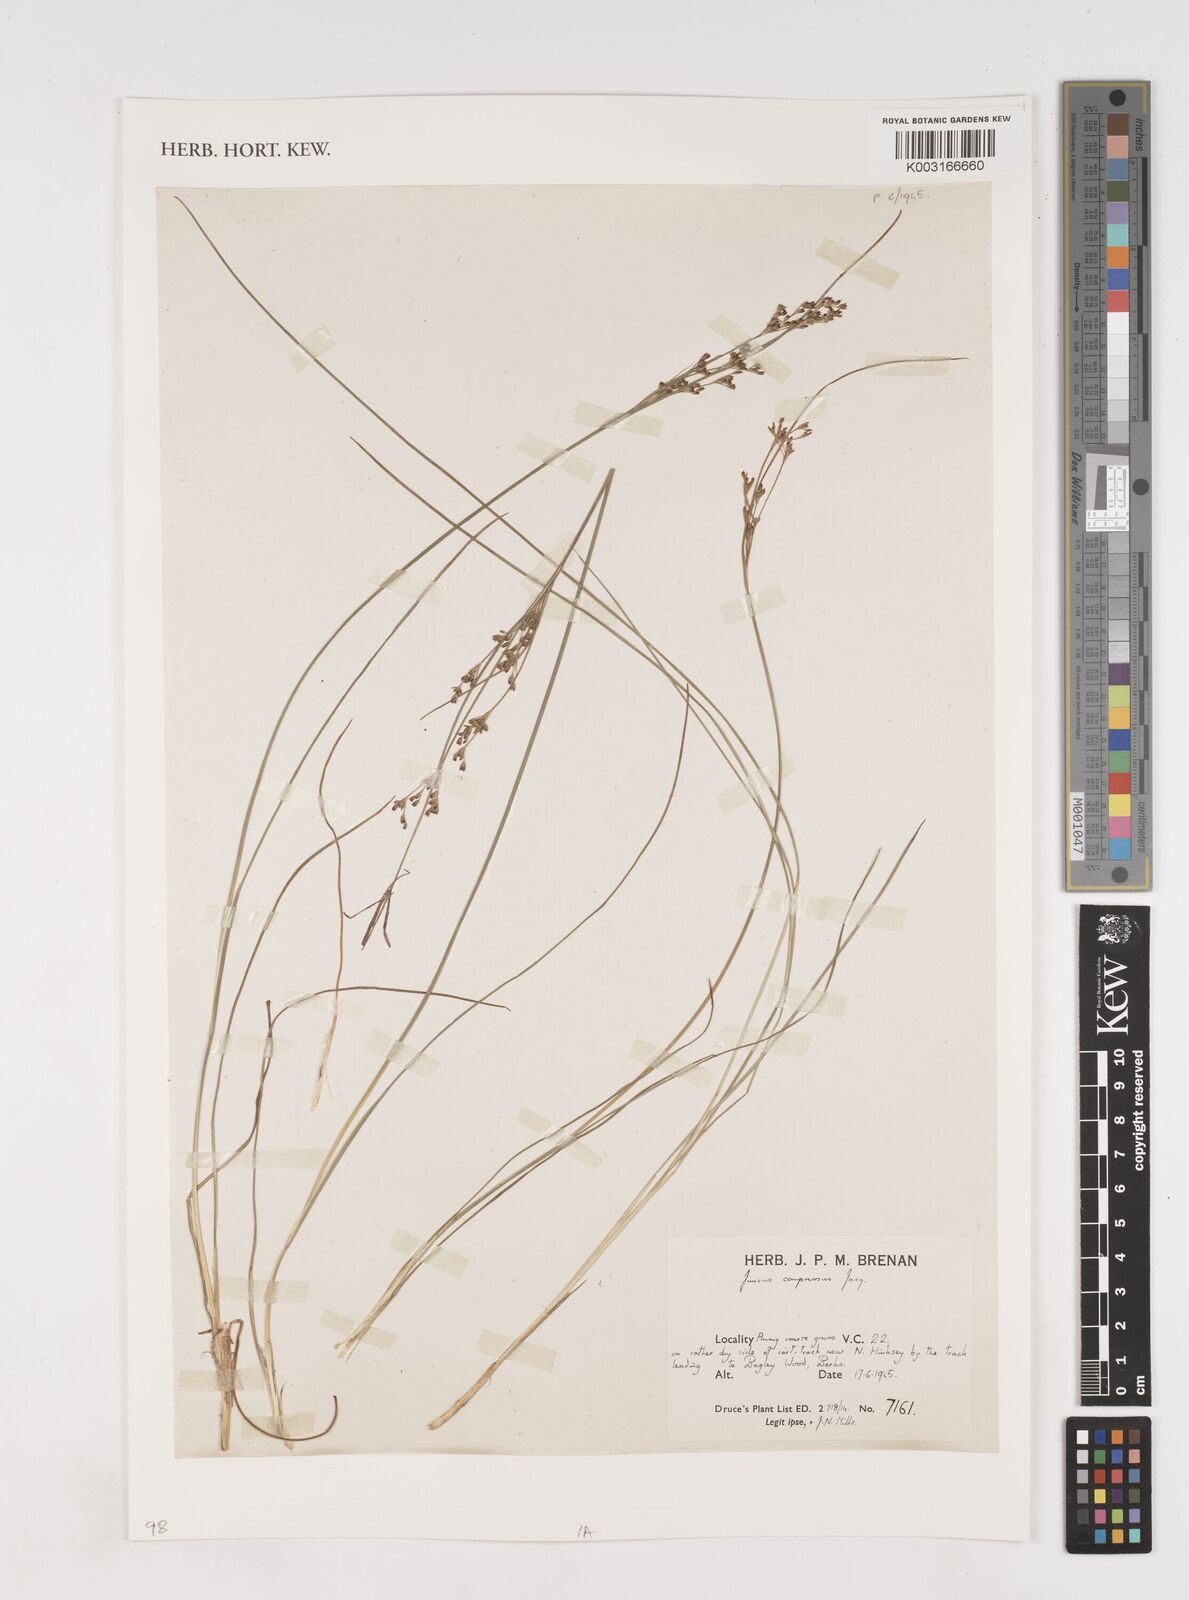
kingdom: Plantae
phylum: Tracheophyta
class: Liliopsida
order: Poales
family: Juncaceae
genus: Juncus
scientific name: Juncus compressus
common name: Round-fruited rush
